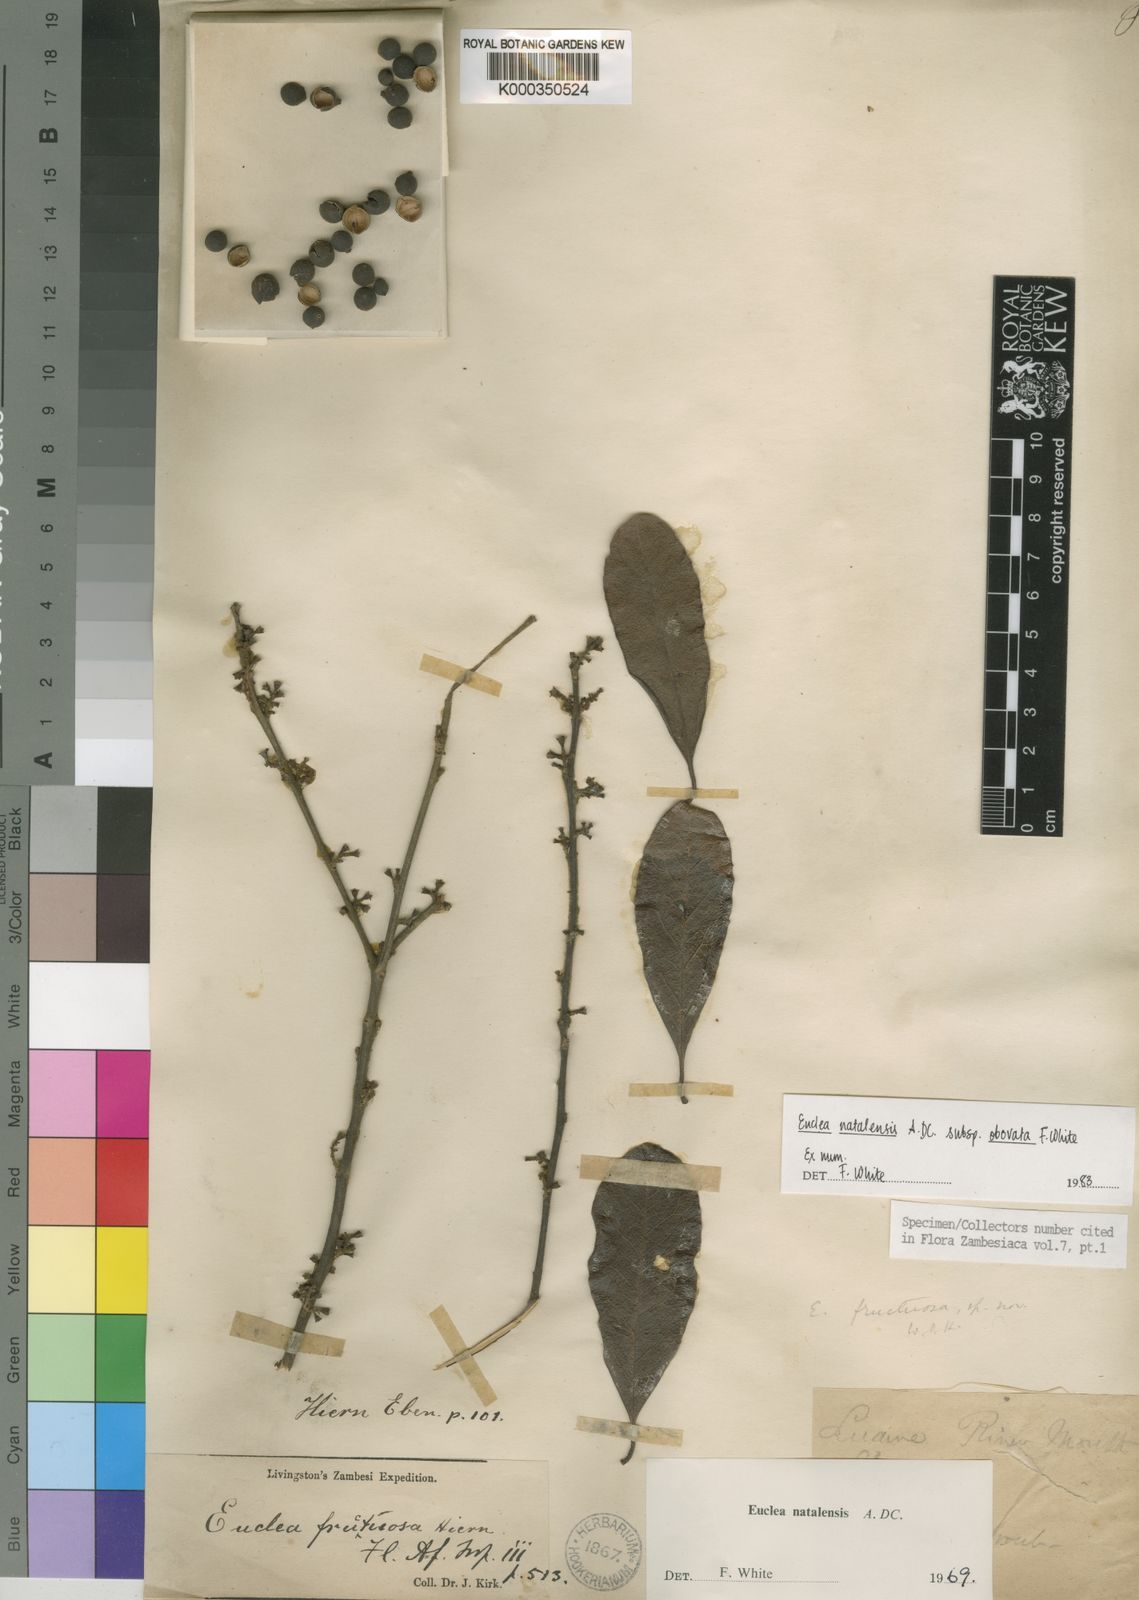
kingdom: Plantae
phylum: Tracheophyta
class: Magnoliopsida
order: Ericales
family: Ebenaceae
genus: Euclea
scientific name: Euclea natalensis
